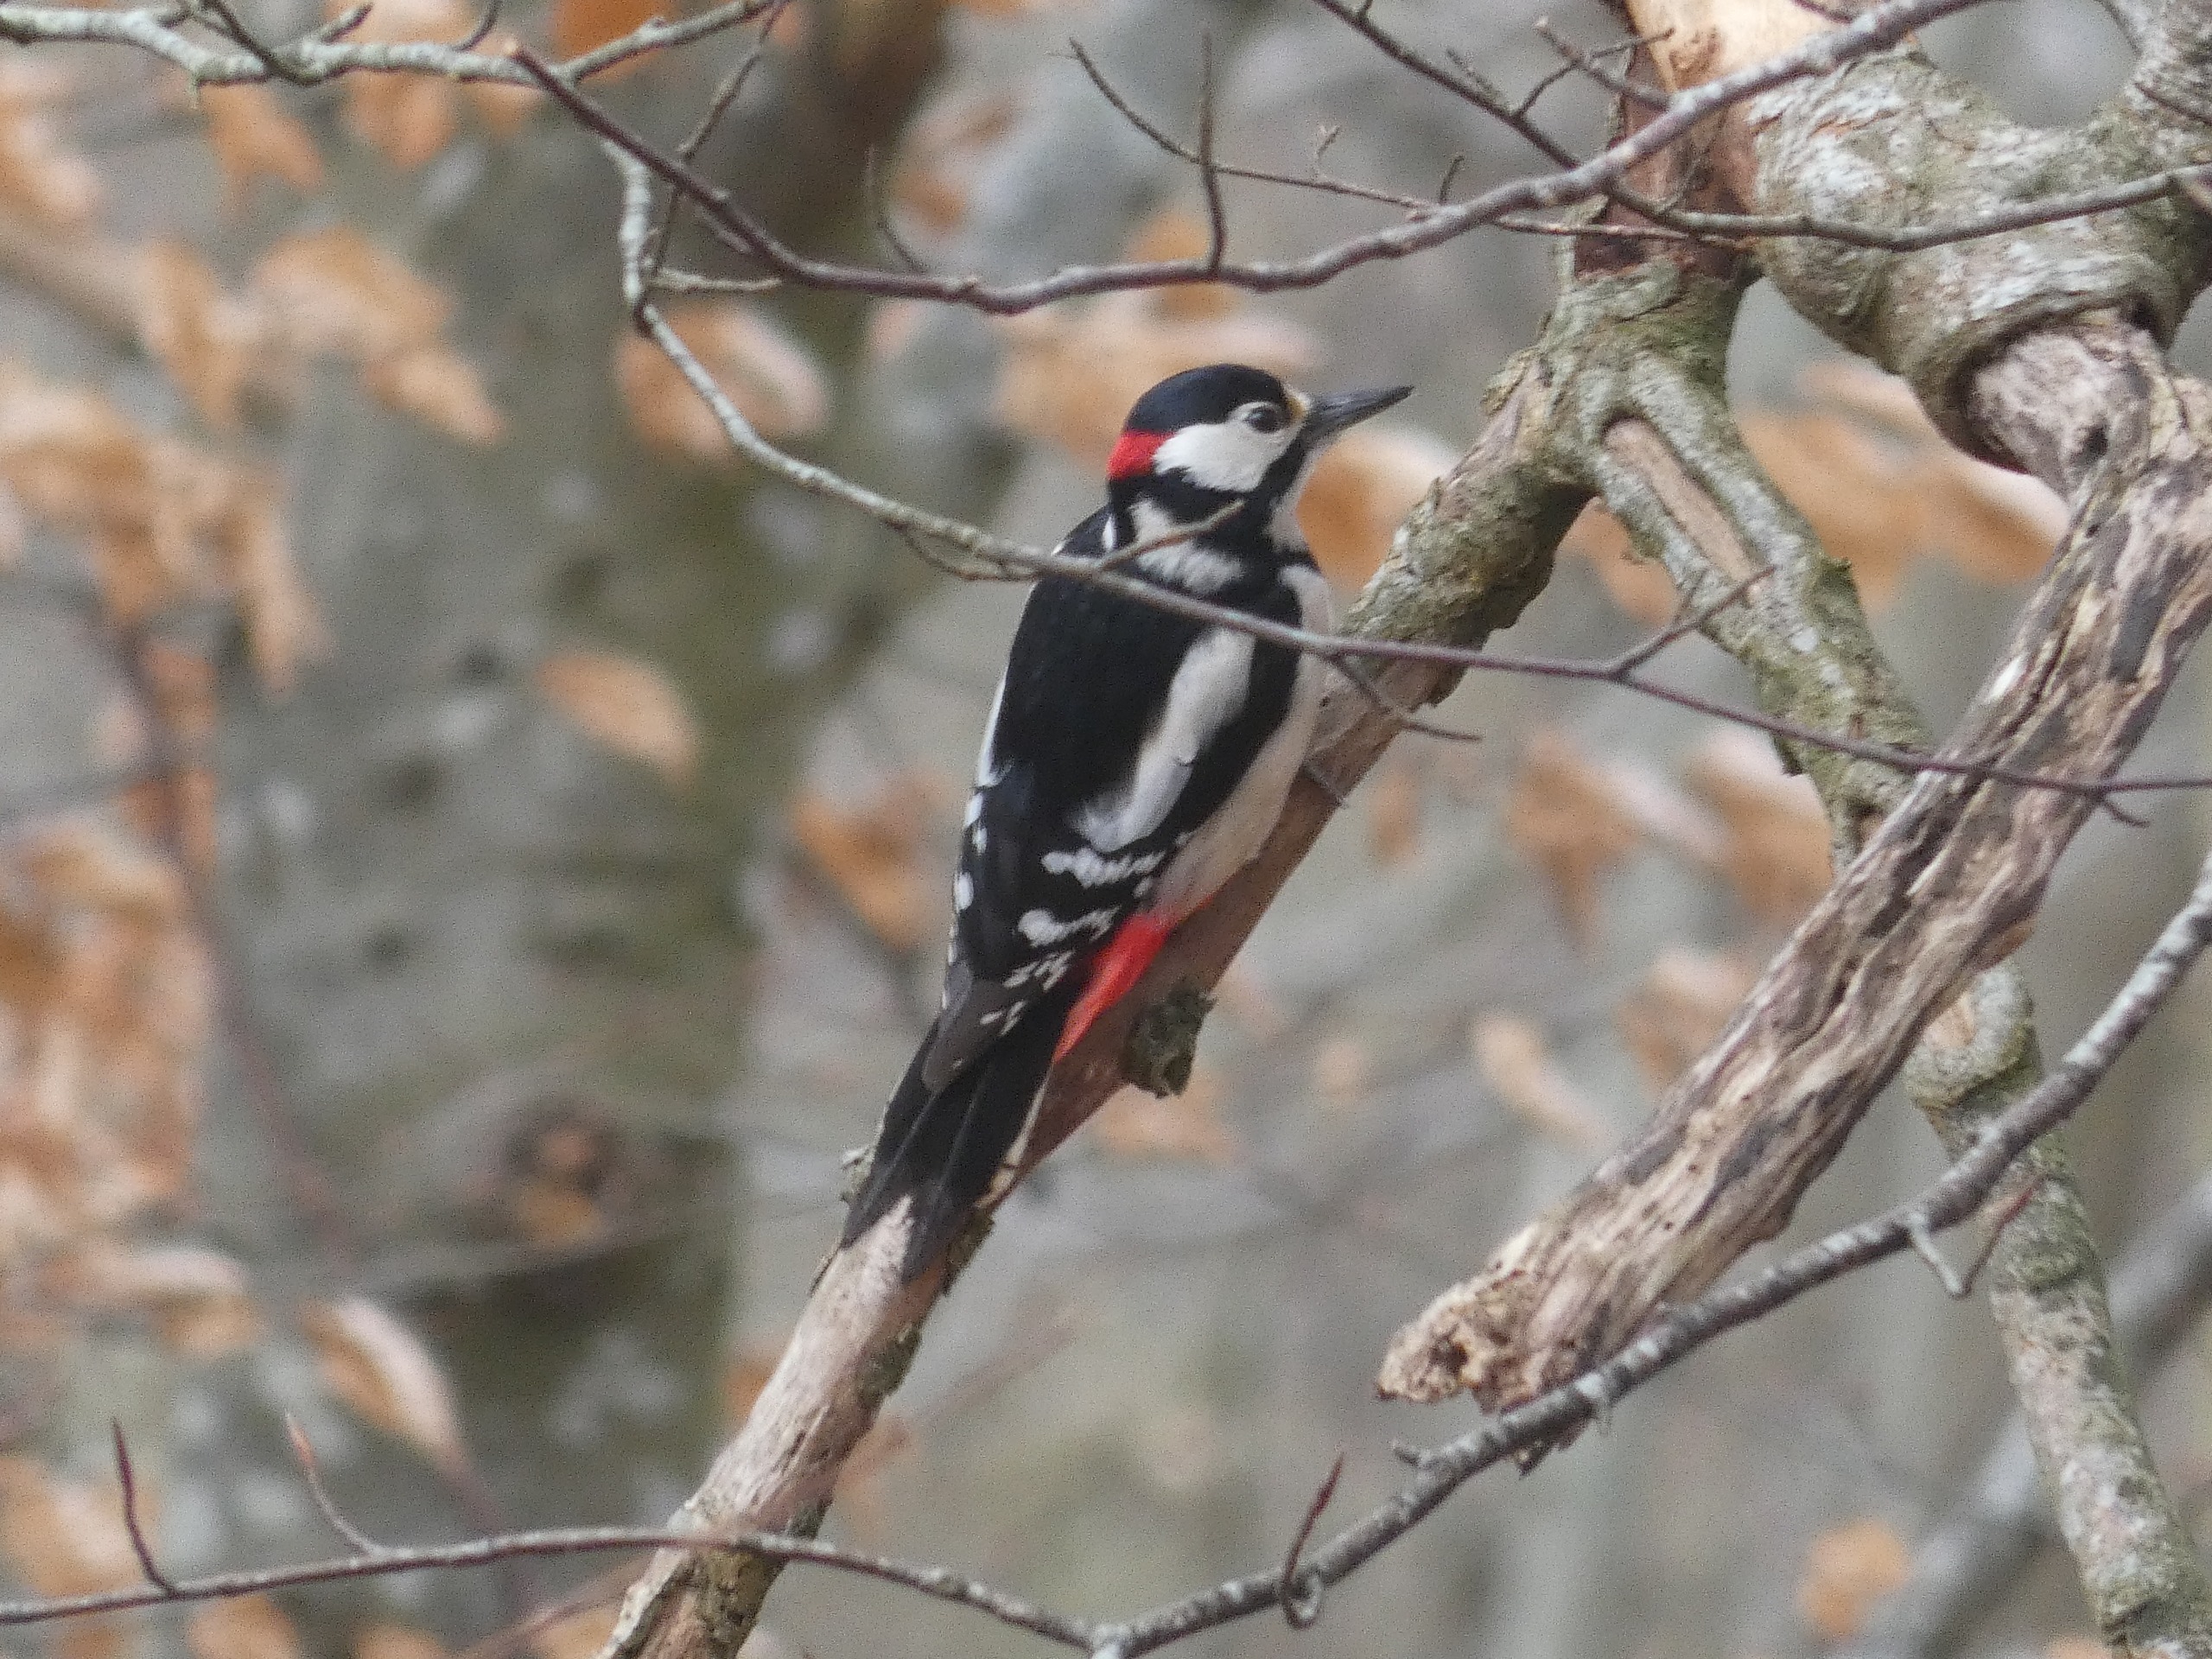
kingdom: Animalia
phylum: Chordata
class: Aves
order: Piciformes
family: Picidae
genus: Dendrocopos
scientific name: Dendrocopos major
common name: Stor flagspætte
